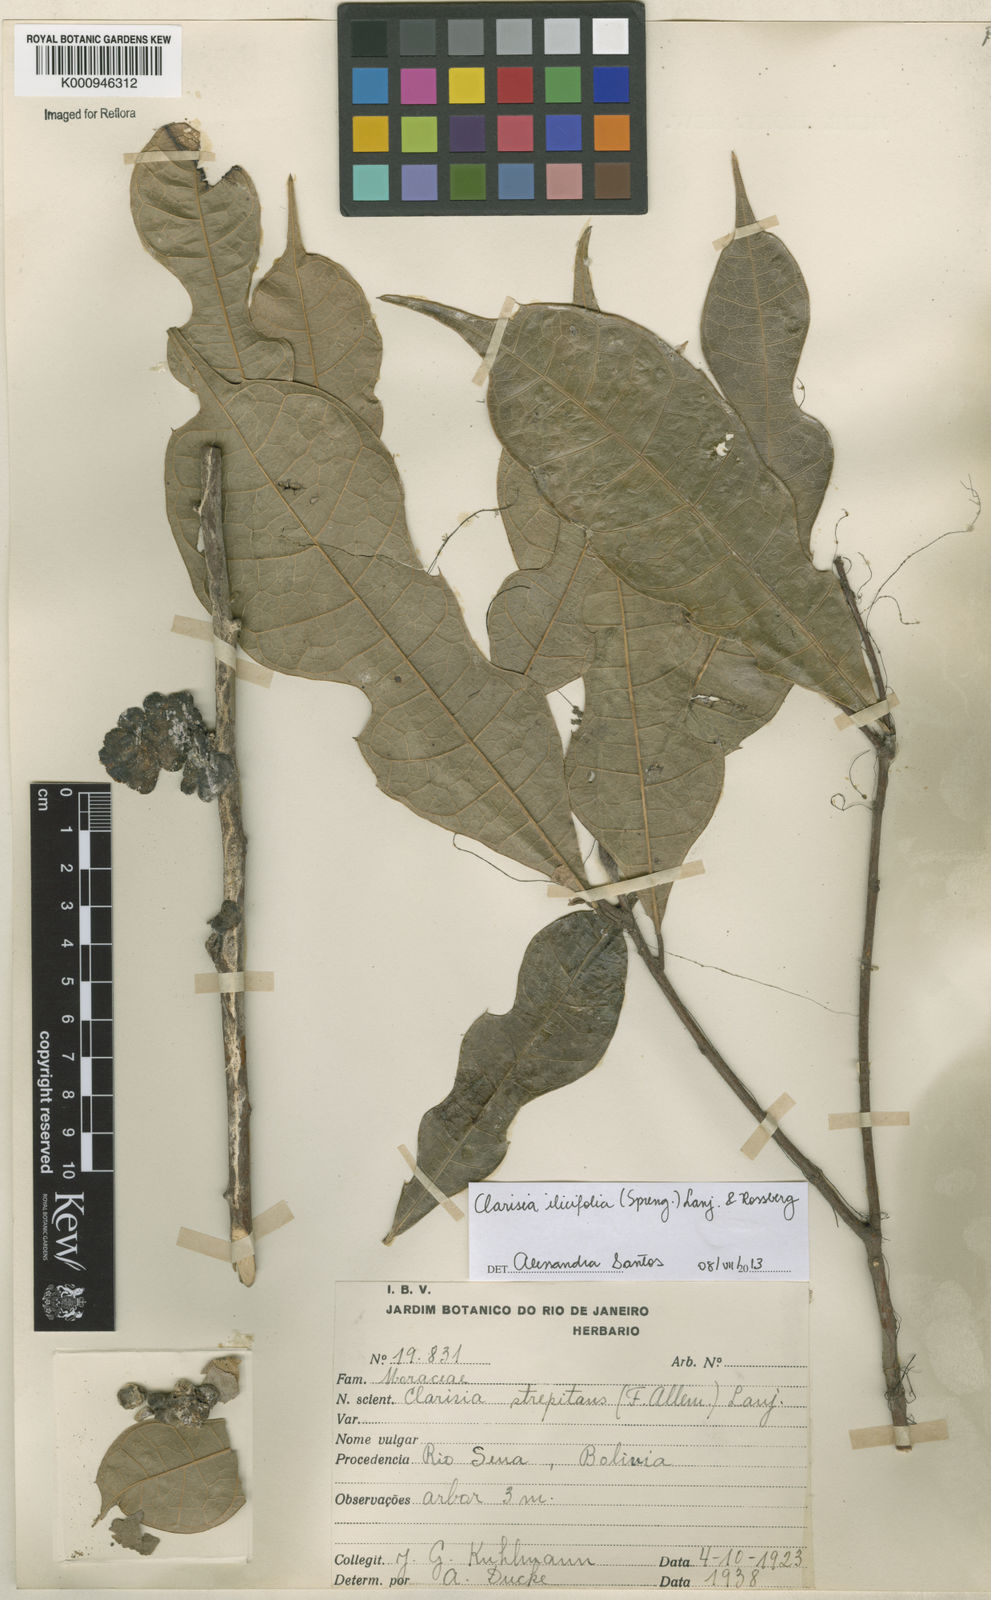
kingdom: Plantae
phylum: Tracheophyta
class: Magnoliopsida
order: Rosales
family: Moraceae
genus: Clarisia
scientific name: Clarisia ilicifolia
